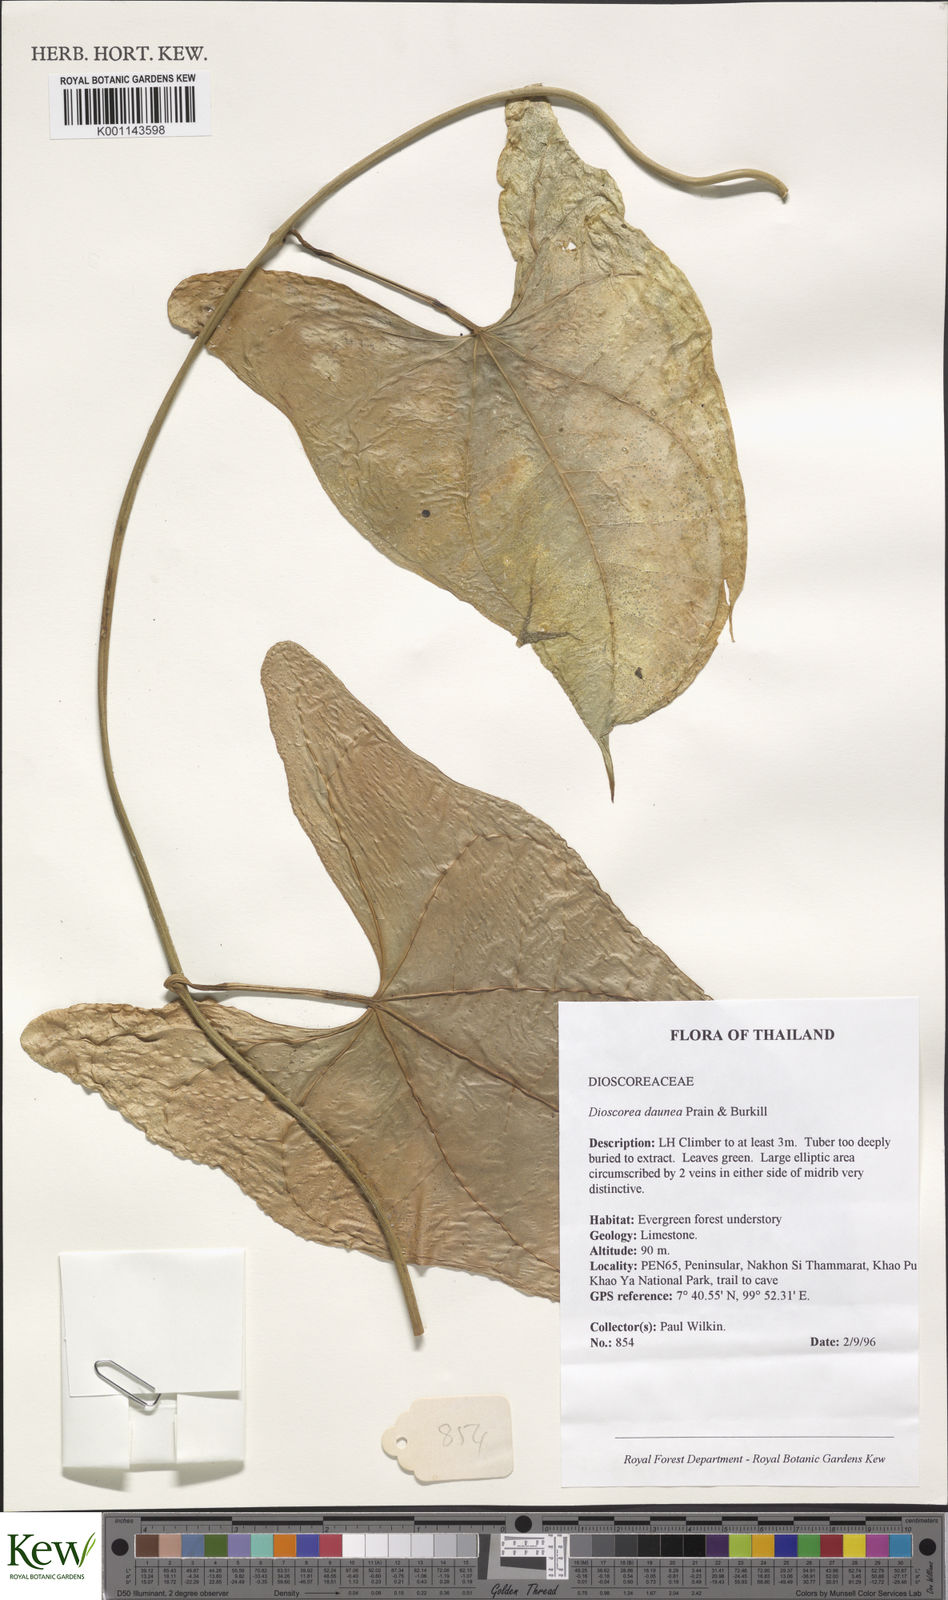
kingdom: Plantae
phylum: Tracheophyta
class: Liliopsida
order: Dioscoreales
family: Dioscoreaceae
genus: Dioscorea
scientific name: Dioscorea daunea
